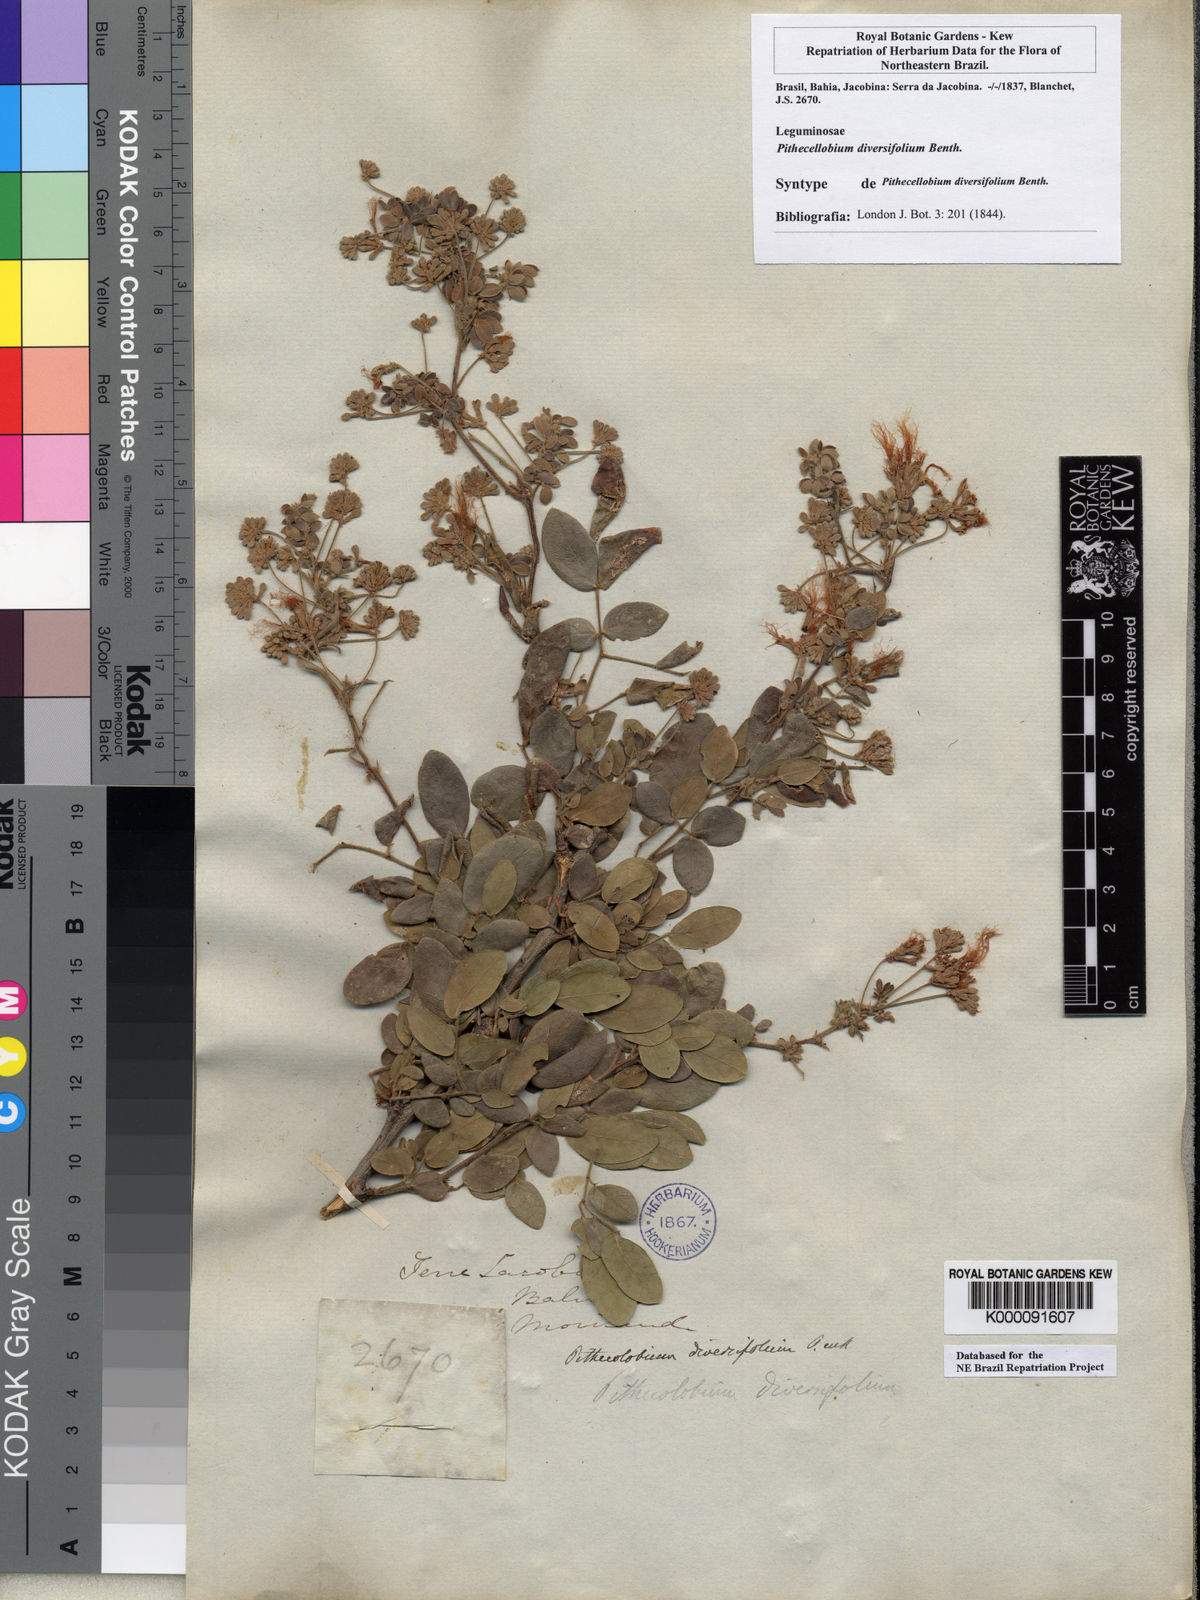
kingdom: Plantae
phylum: Tracheophyta
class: Magnoliopsida
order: Fabales
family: Fabaceae
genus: Pithecellobium
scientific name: Pithecellobium diversifolium
